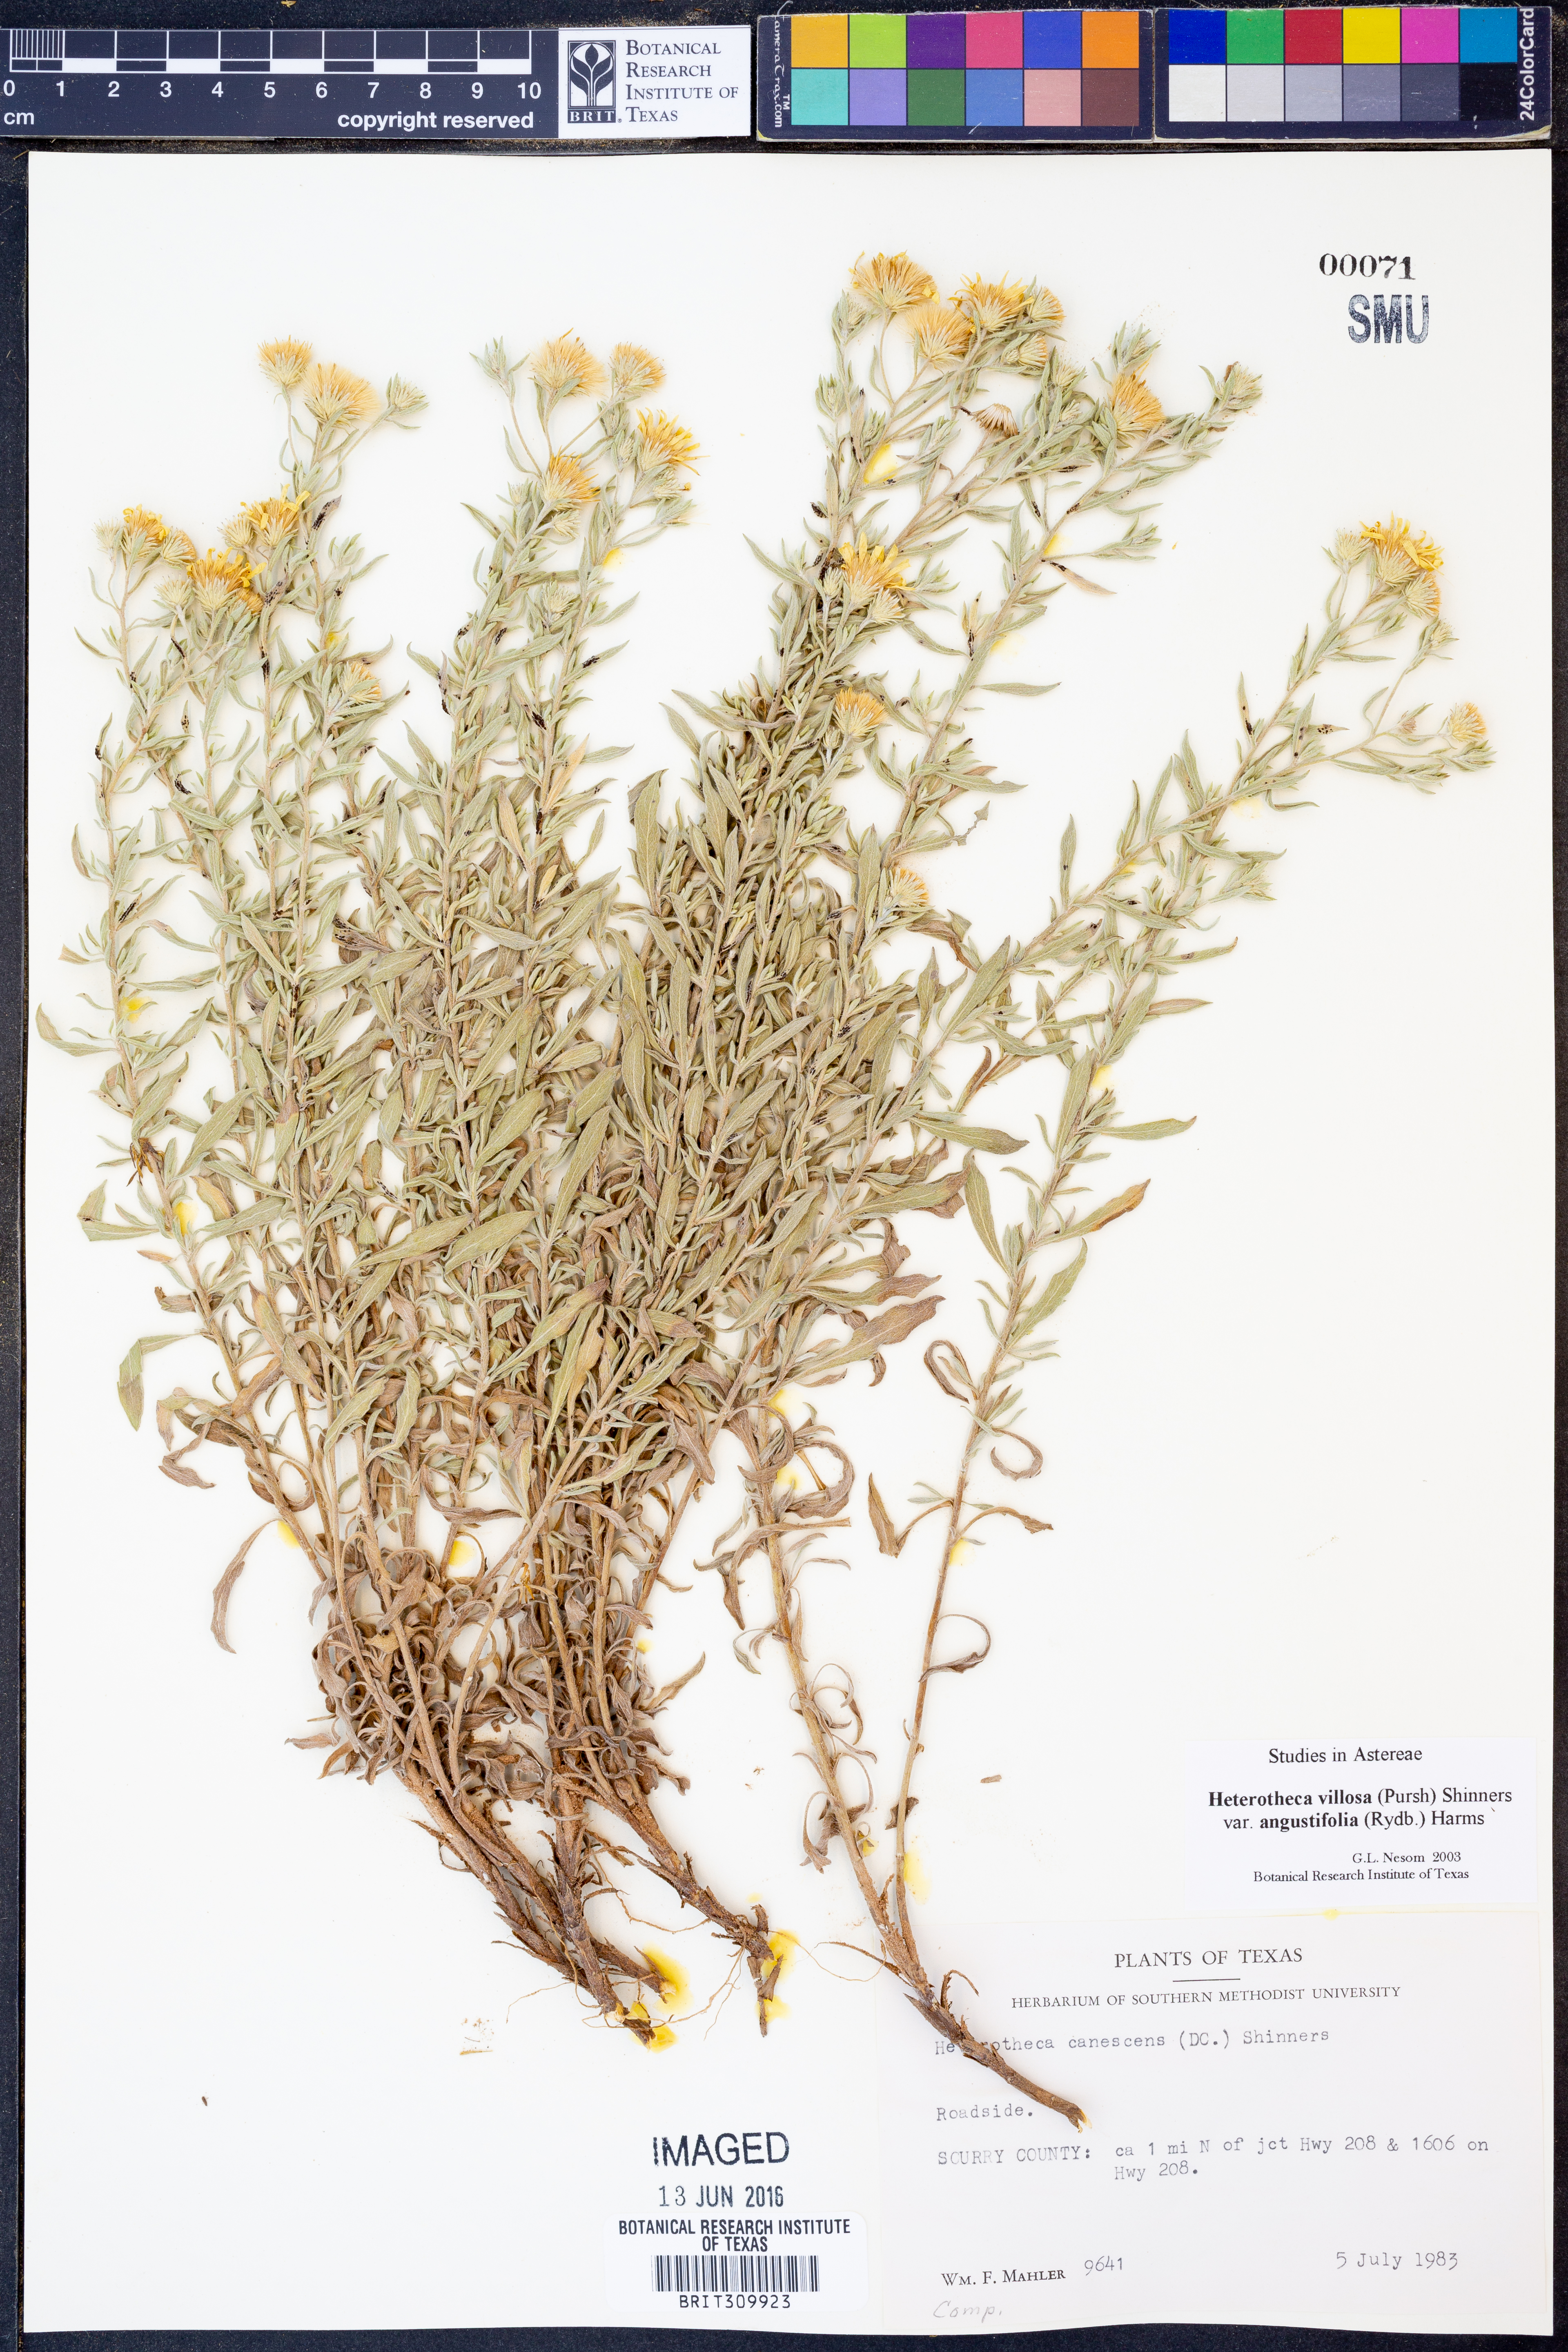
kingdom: Plantae
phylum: Tracheophyta
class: Magnoliopsida
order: Asterales
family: Asteraceae
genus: Heterotheca
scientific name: Heterotheca angustifolia
